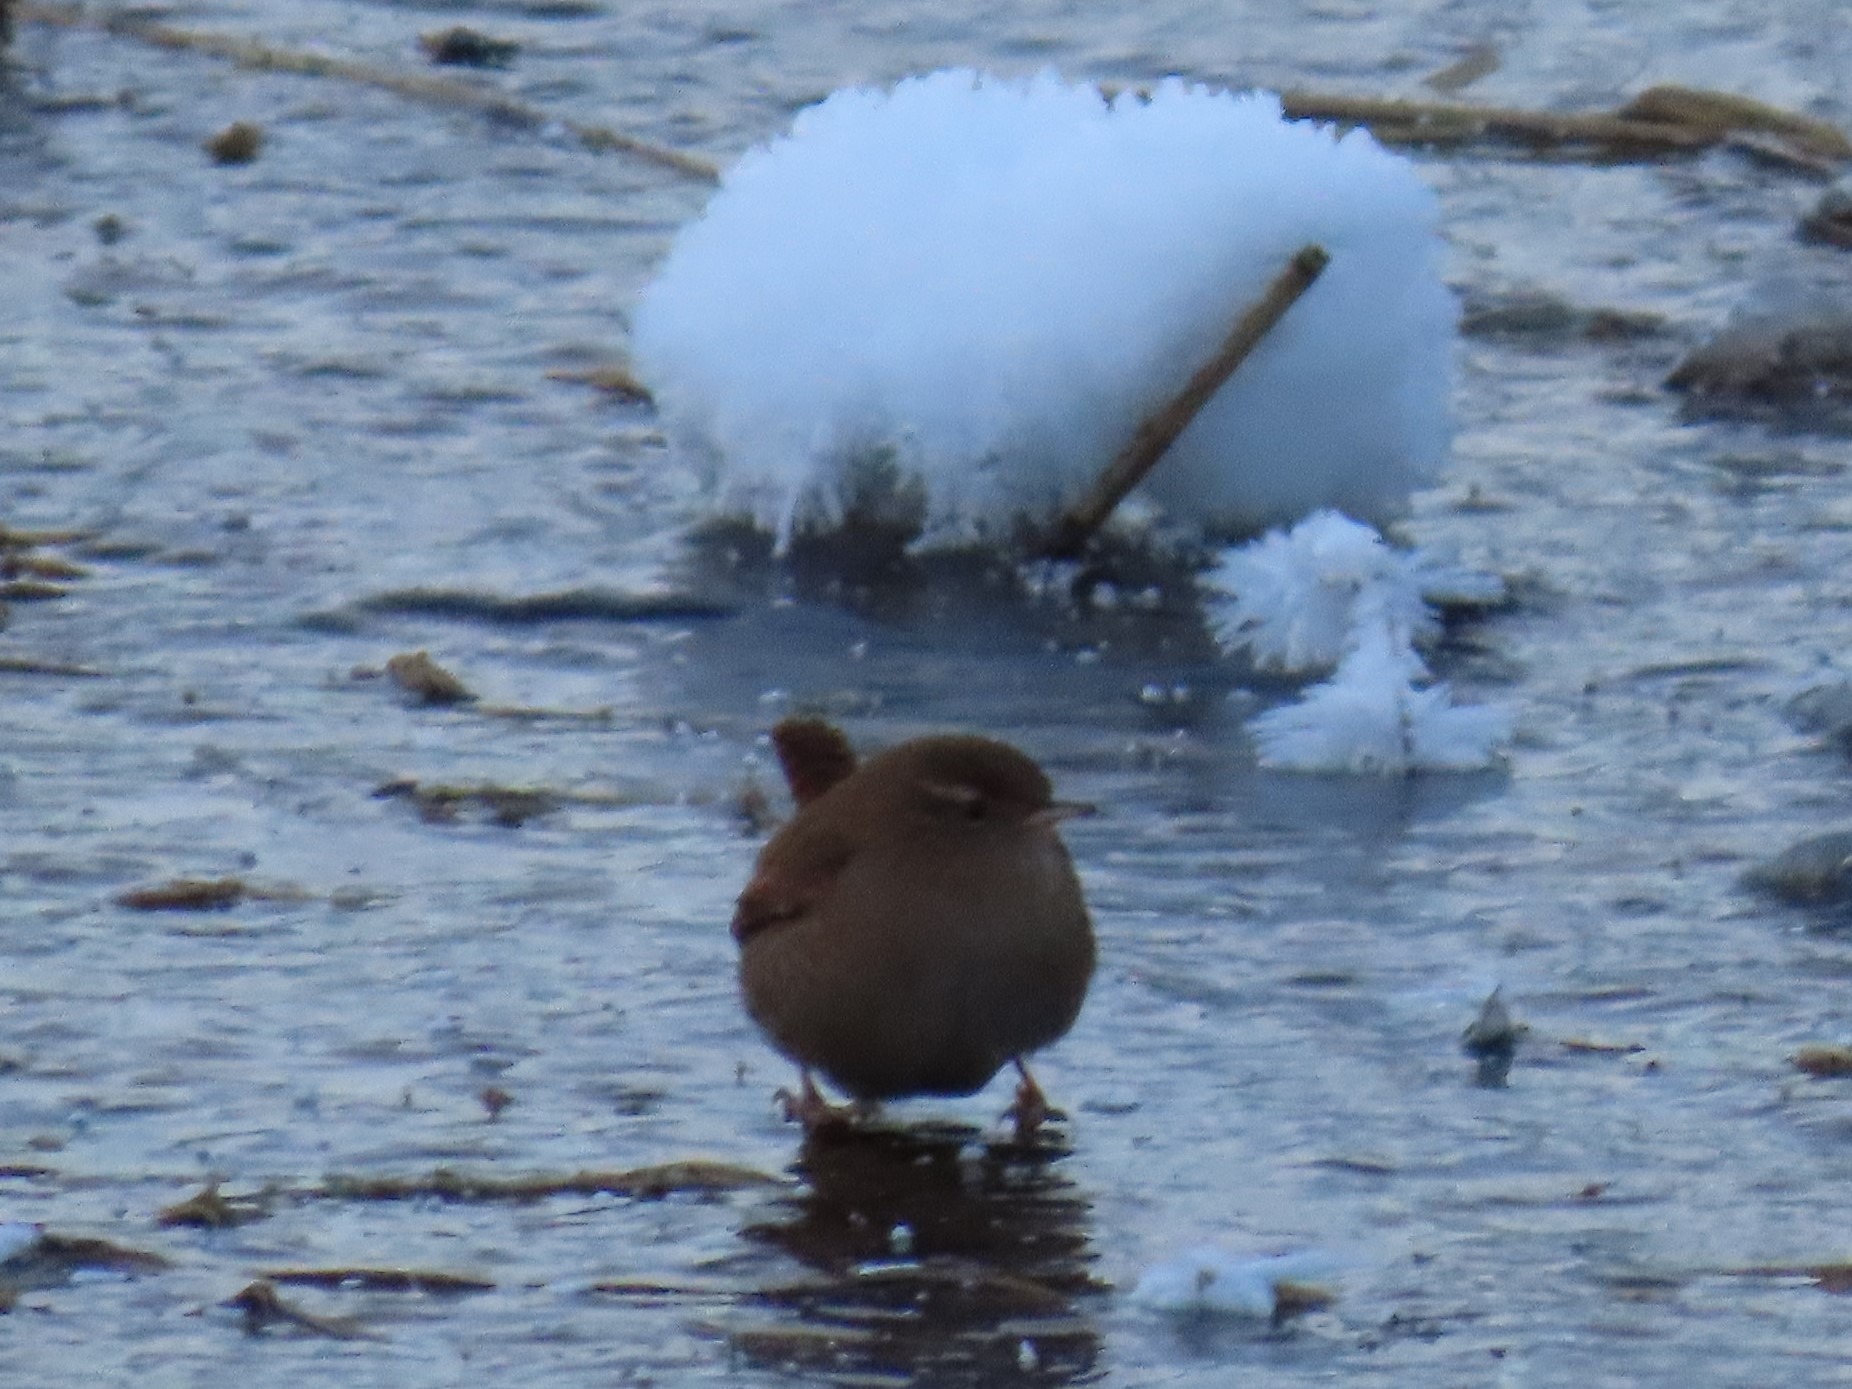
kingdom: Animalia
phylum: Chordata
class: Aves
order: Passeriformes
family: Troglodytidae
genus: Troglodytes
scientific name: Troglodytes troglodytes
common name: Gærdesmutte
